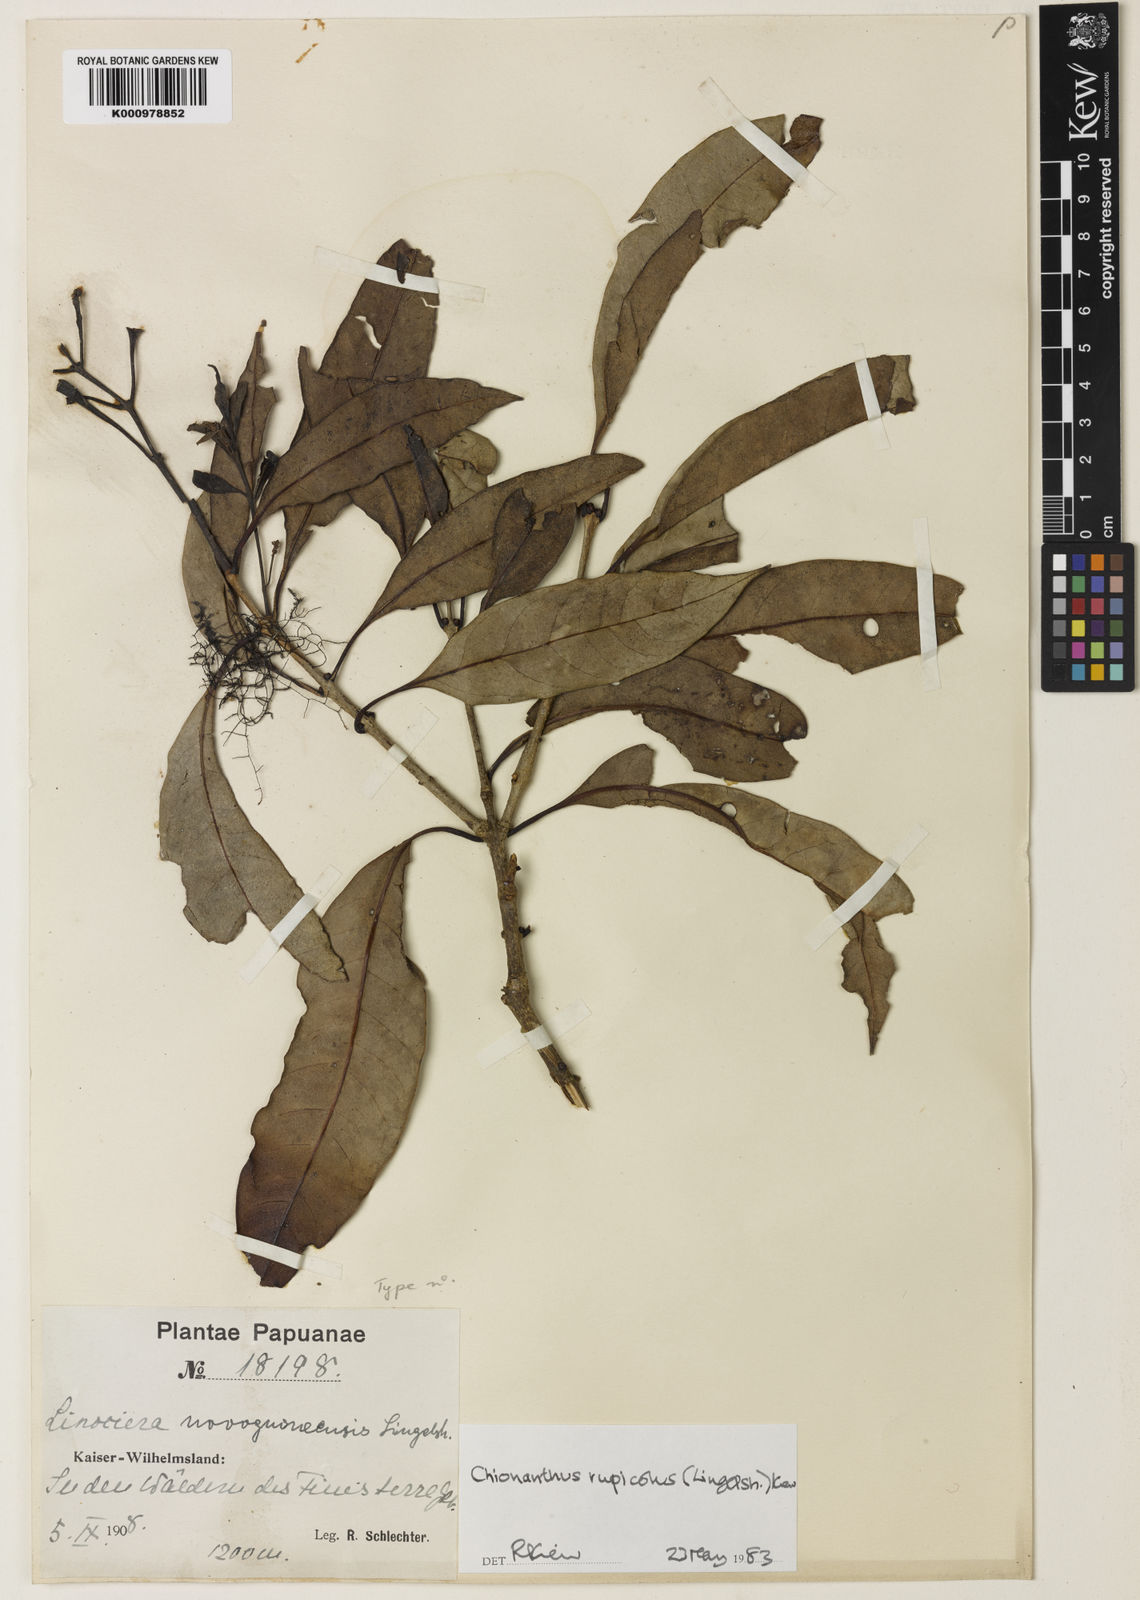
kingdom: Plantae
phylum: Tracheophyta
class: Magnoliopsida
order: Lamiales
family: Oleaceae
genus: Chionanthus
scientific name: Chionanthus polygamus
